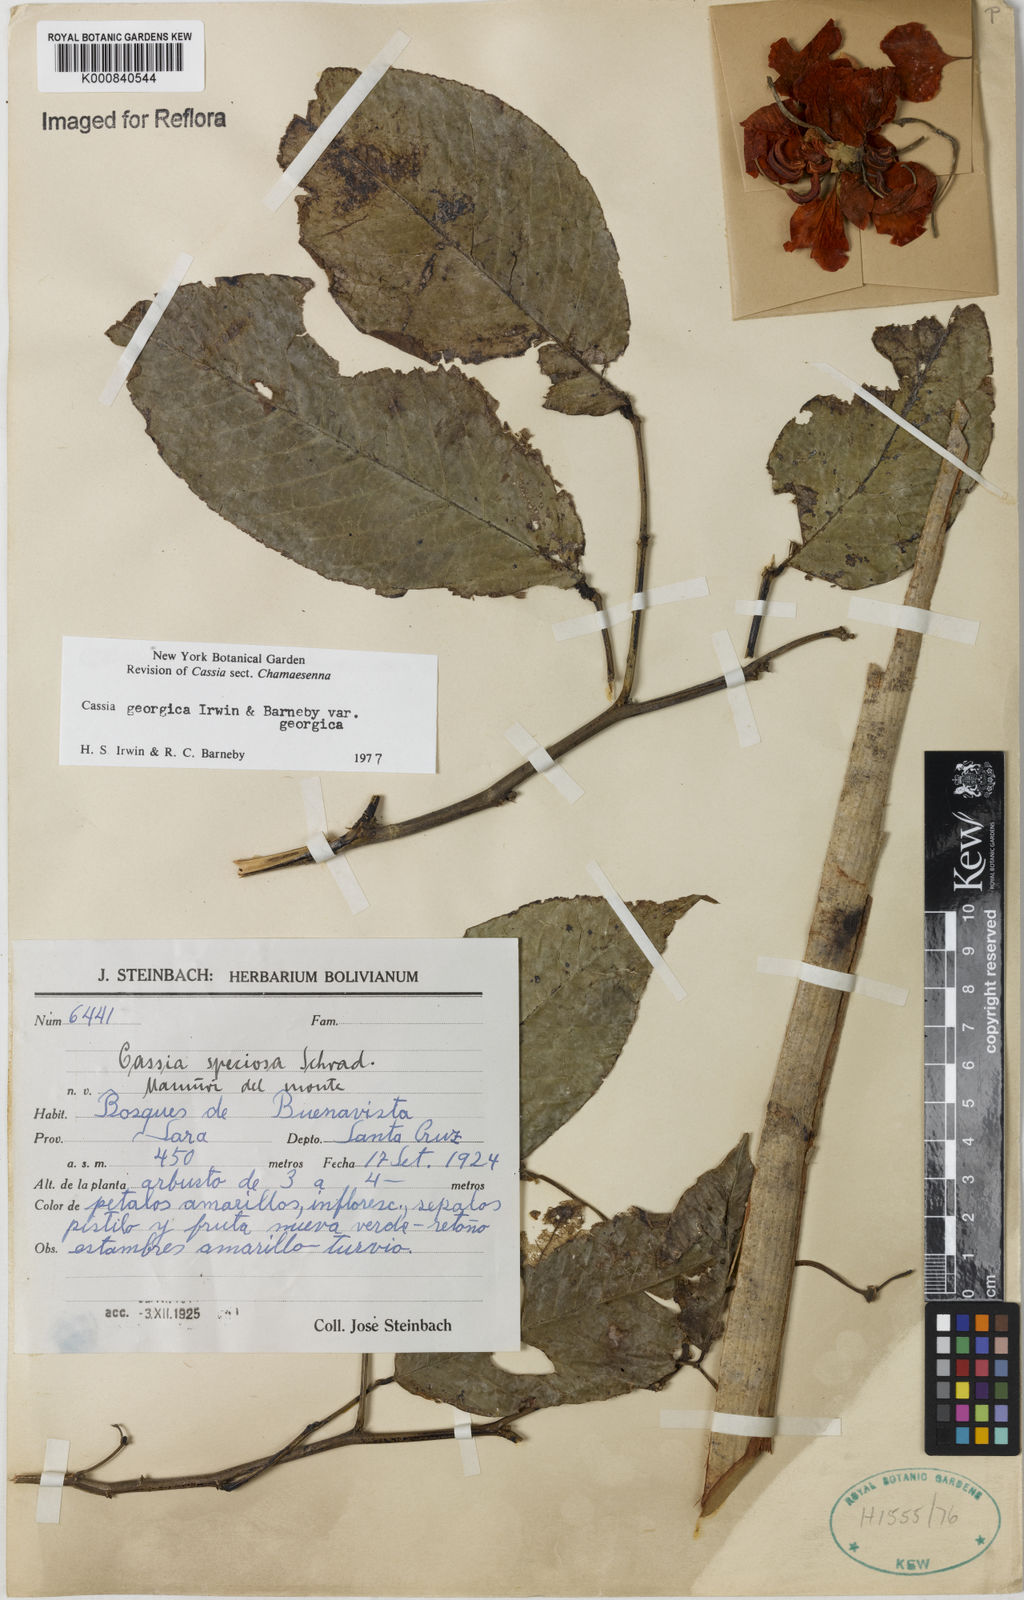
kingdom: Plantae
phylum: Tracheophyta
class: Magnoliopsida
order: Fabales
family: Fabaceae
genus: Senna
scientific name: Senna georgica
